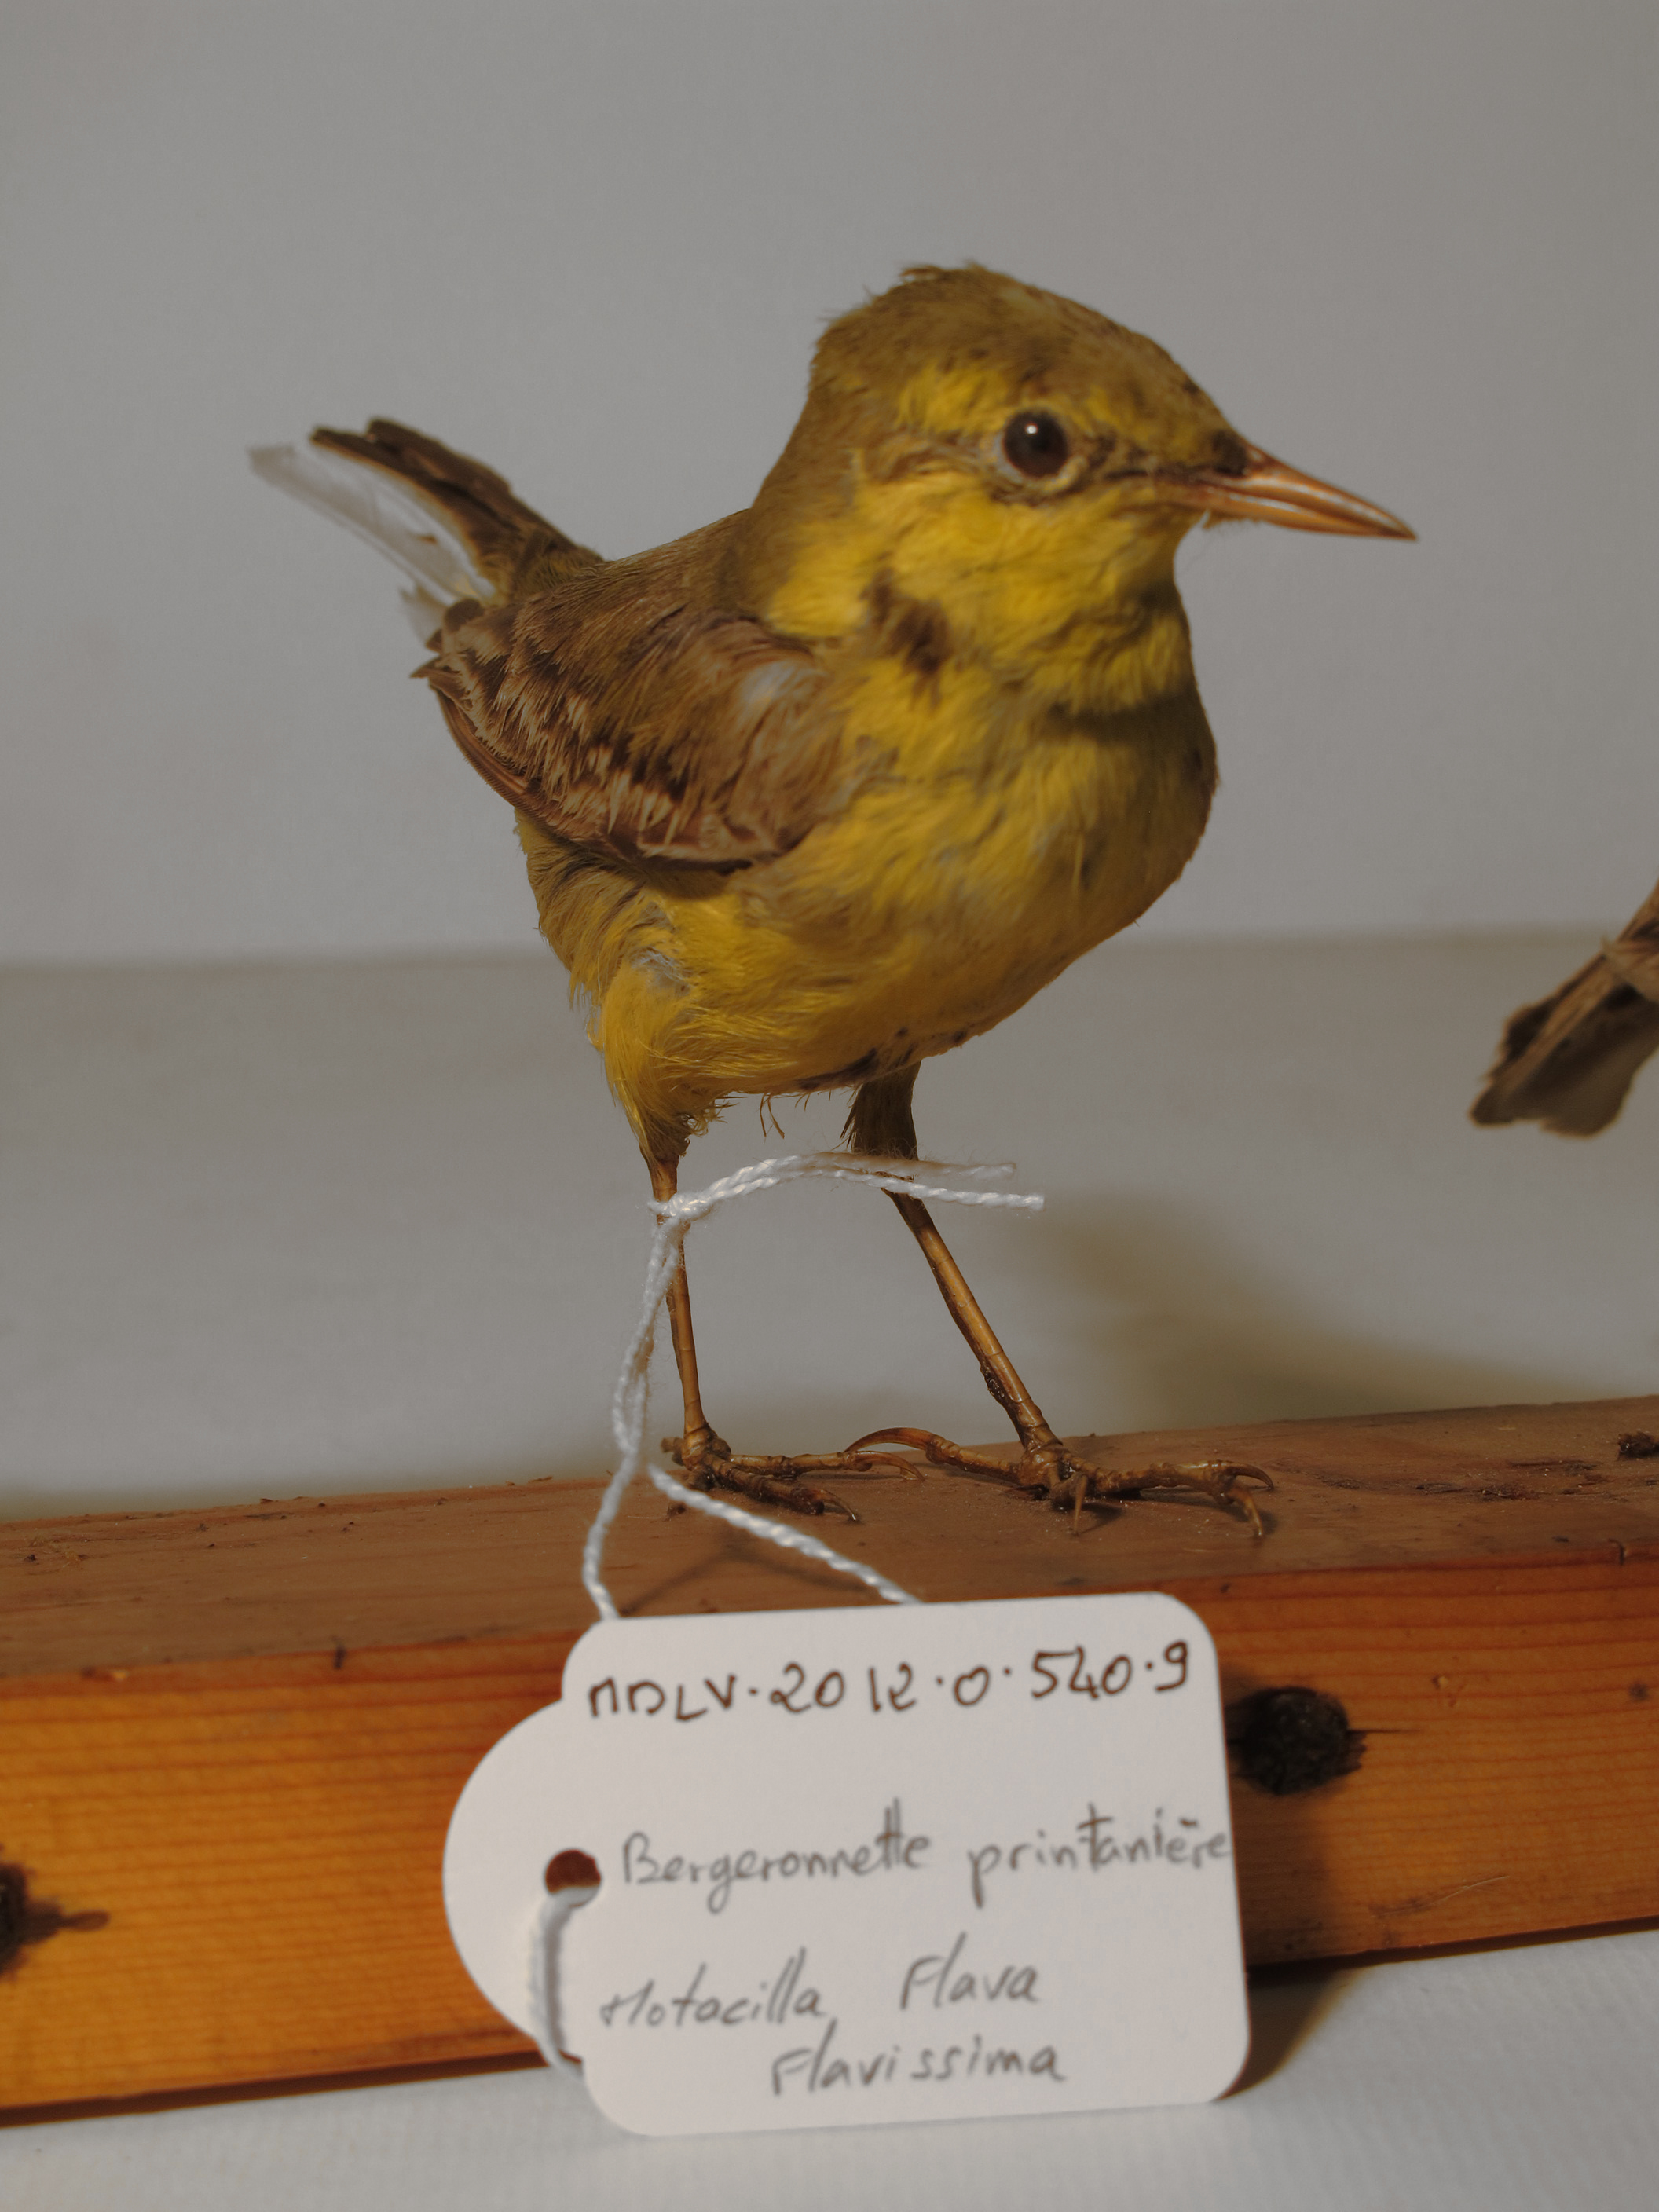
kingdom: Animalia
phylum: Chordata
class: Aves
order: Passeriformes
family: Motacillidae
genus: Motacilla
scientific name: Motacilla flava
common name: Yellow Wagtail
